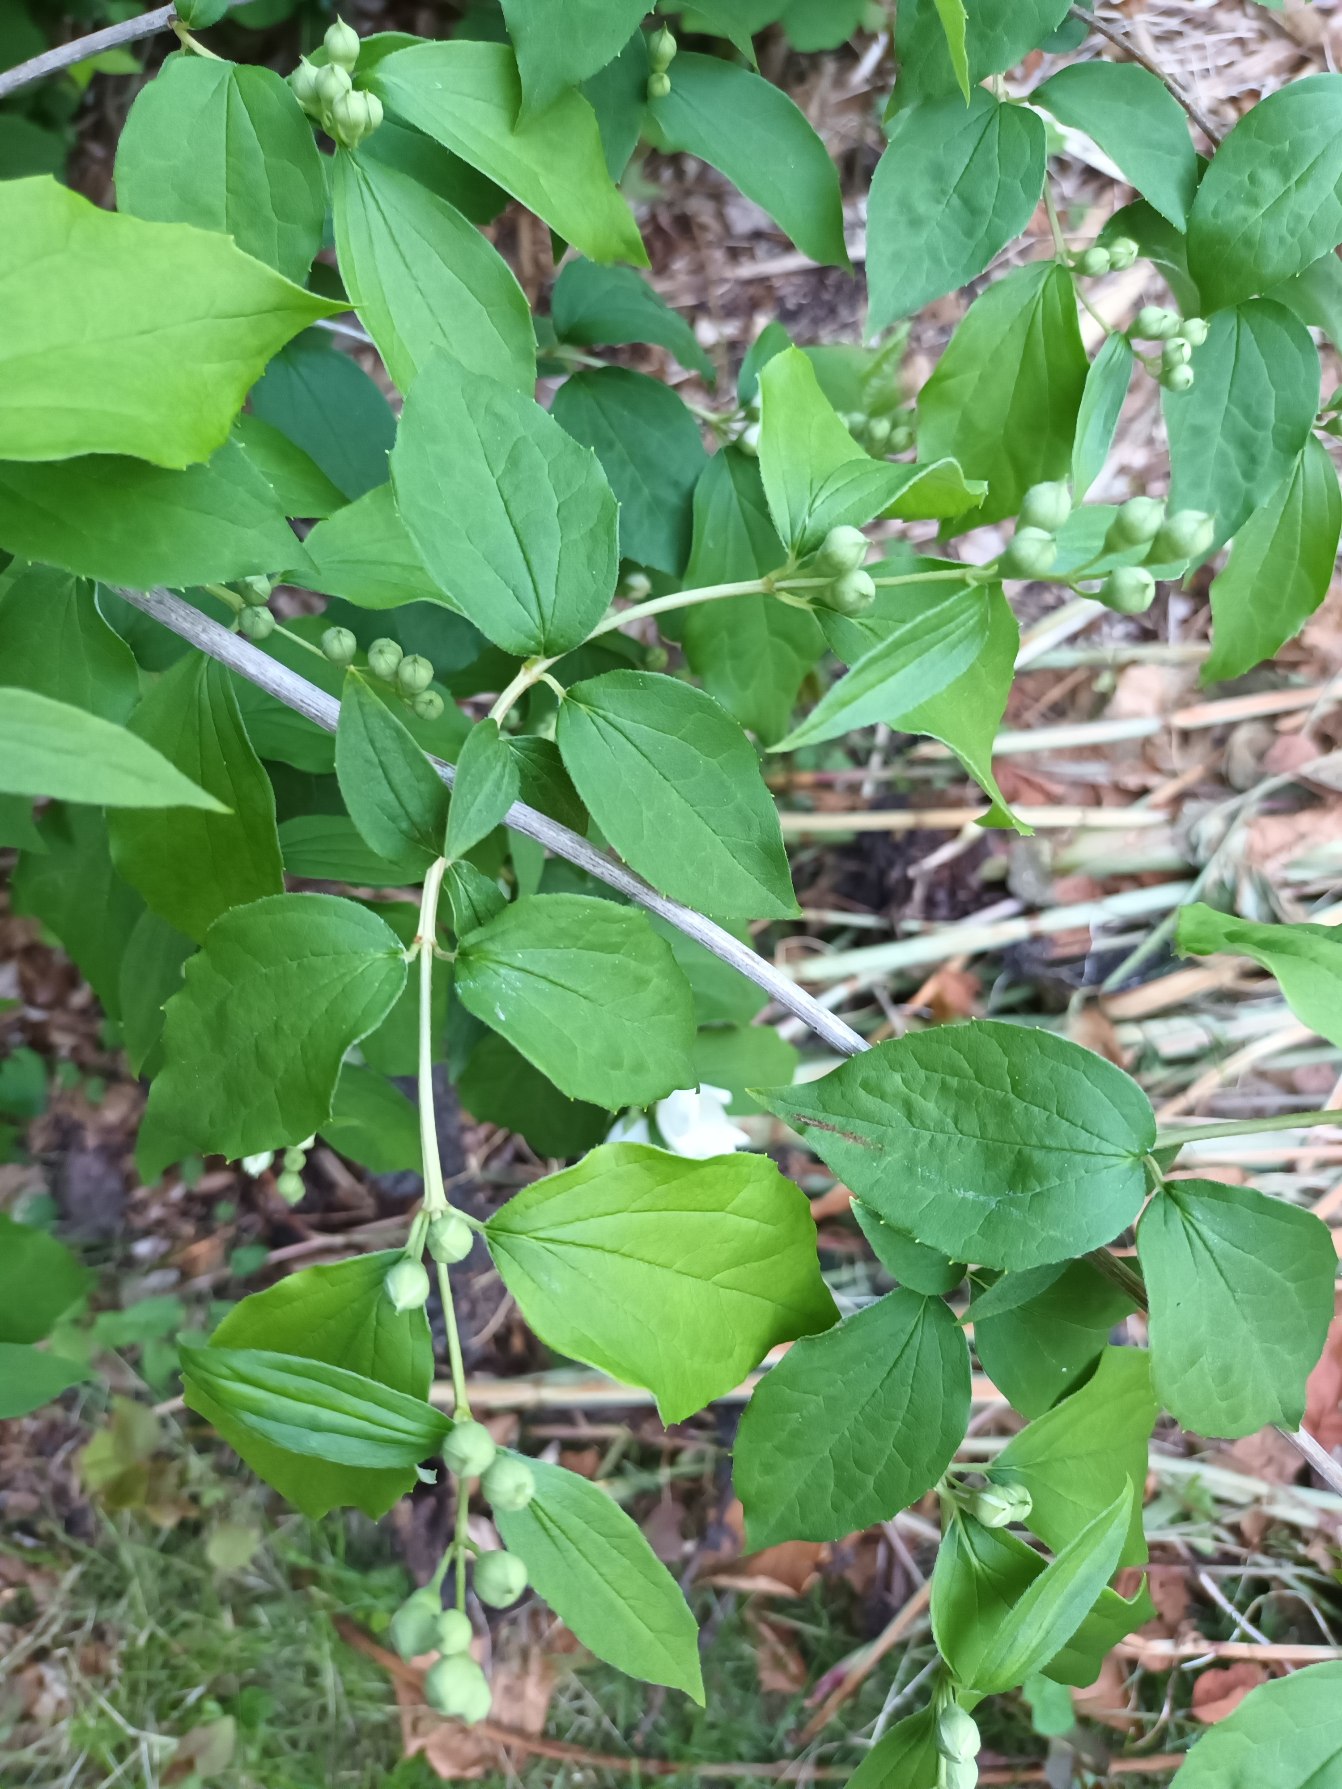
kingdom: Plantae
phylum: Tracheophyta
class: Magnoliopsida
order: Cornales
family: Hydrangeaceae
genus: Philadelphus
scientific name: Philadelphus pubescens
